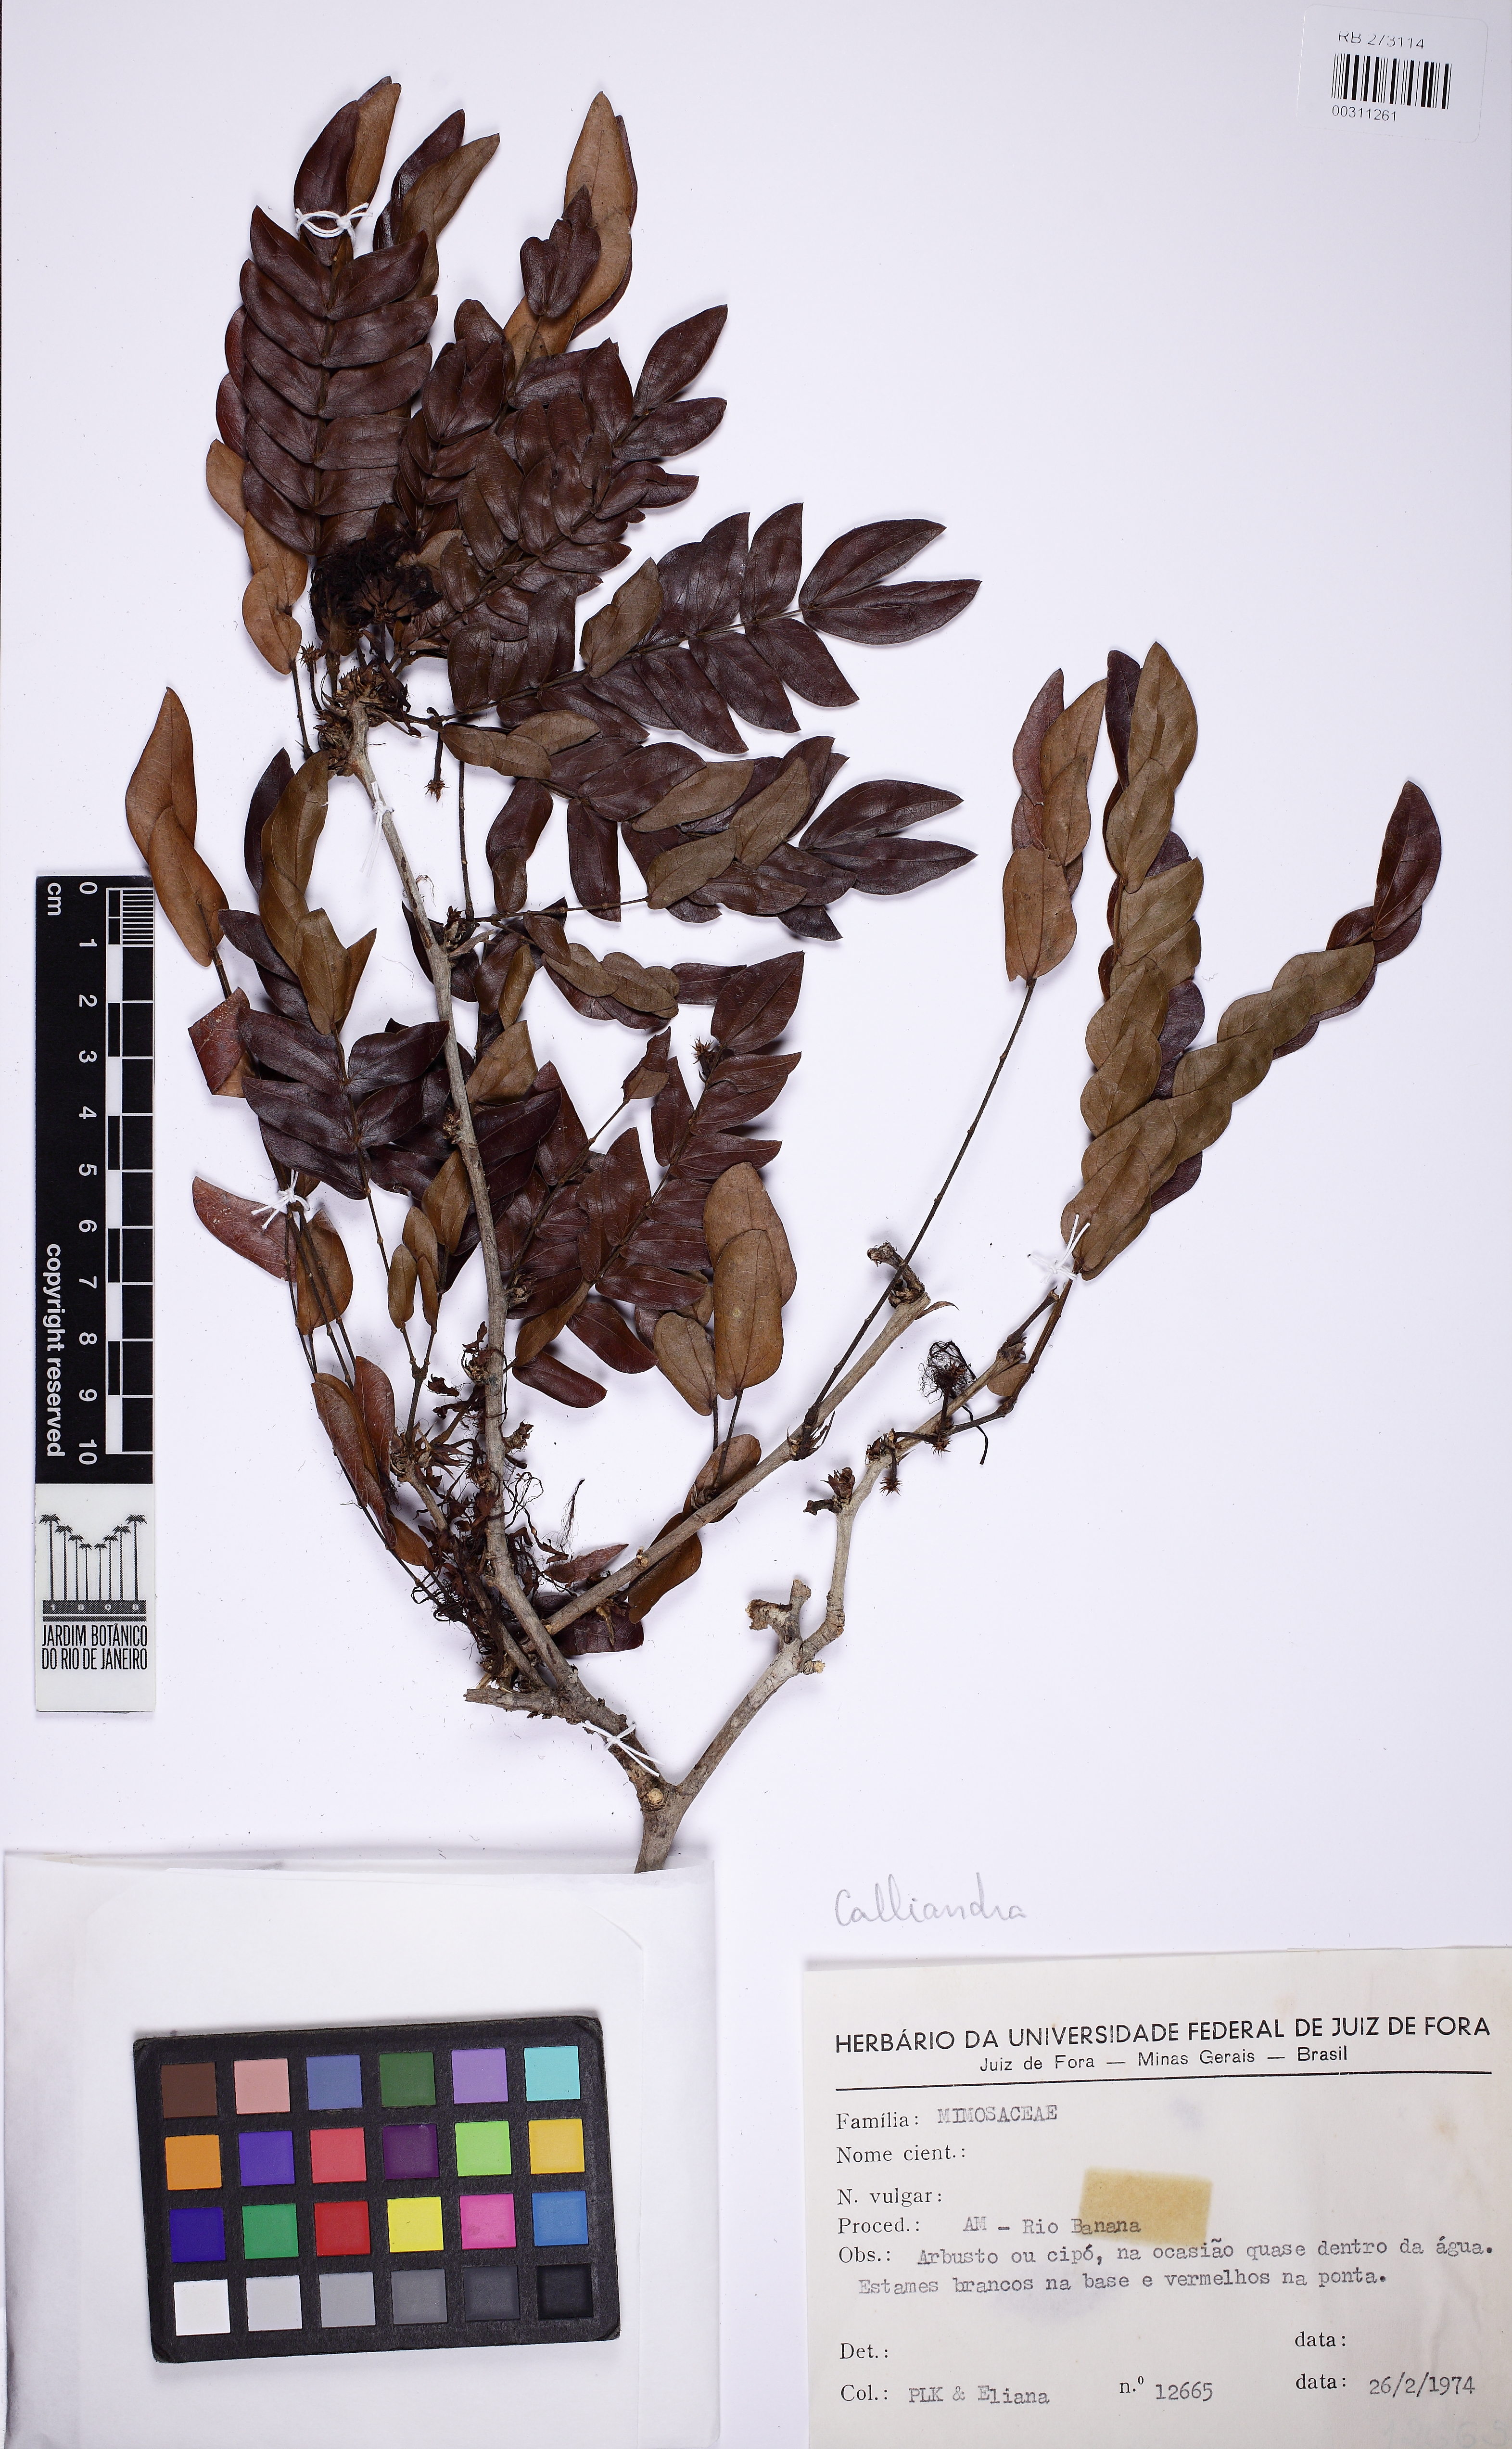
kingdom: Plantae
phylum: Tracheophyta
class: Magnoliopsida
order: Fabales
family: Fabaceae
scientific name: Fabaceae
